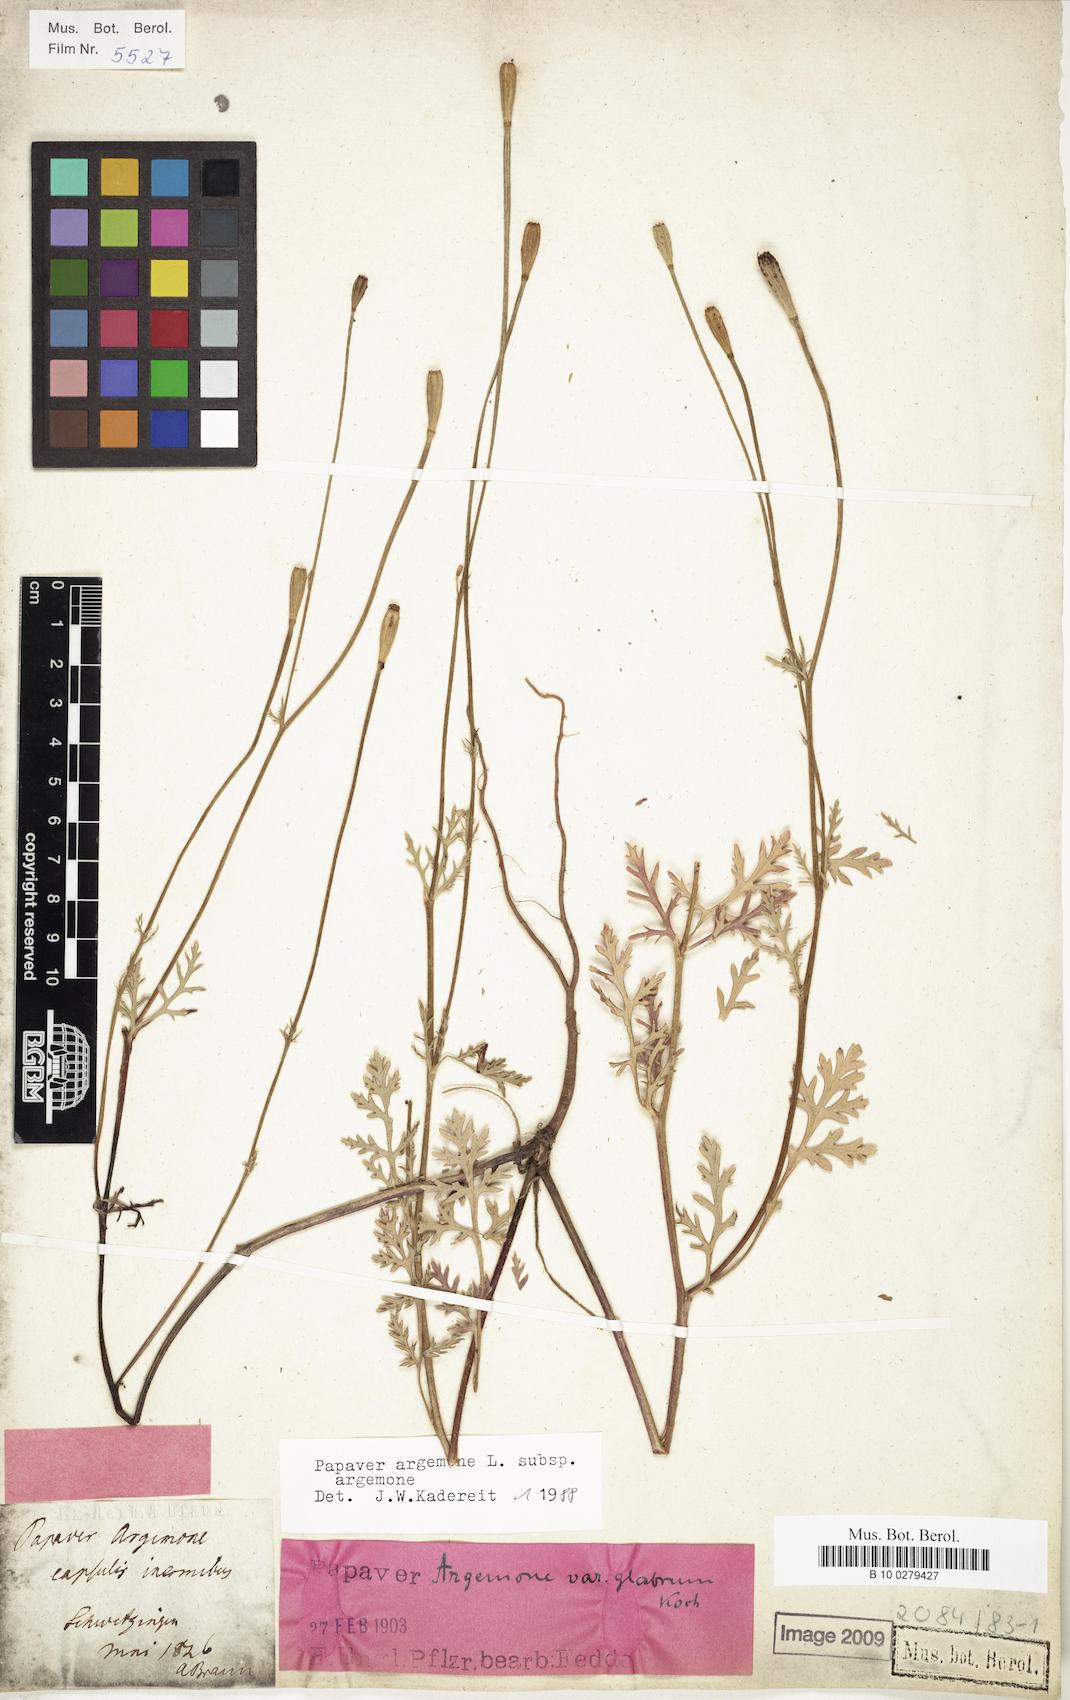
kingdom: Plantae
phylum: Tracheophyta
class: Magnoliopsida
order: Ranunculales
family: Papaveraceae
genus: Roemeria
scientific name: Roemeria argemone
